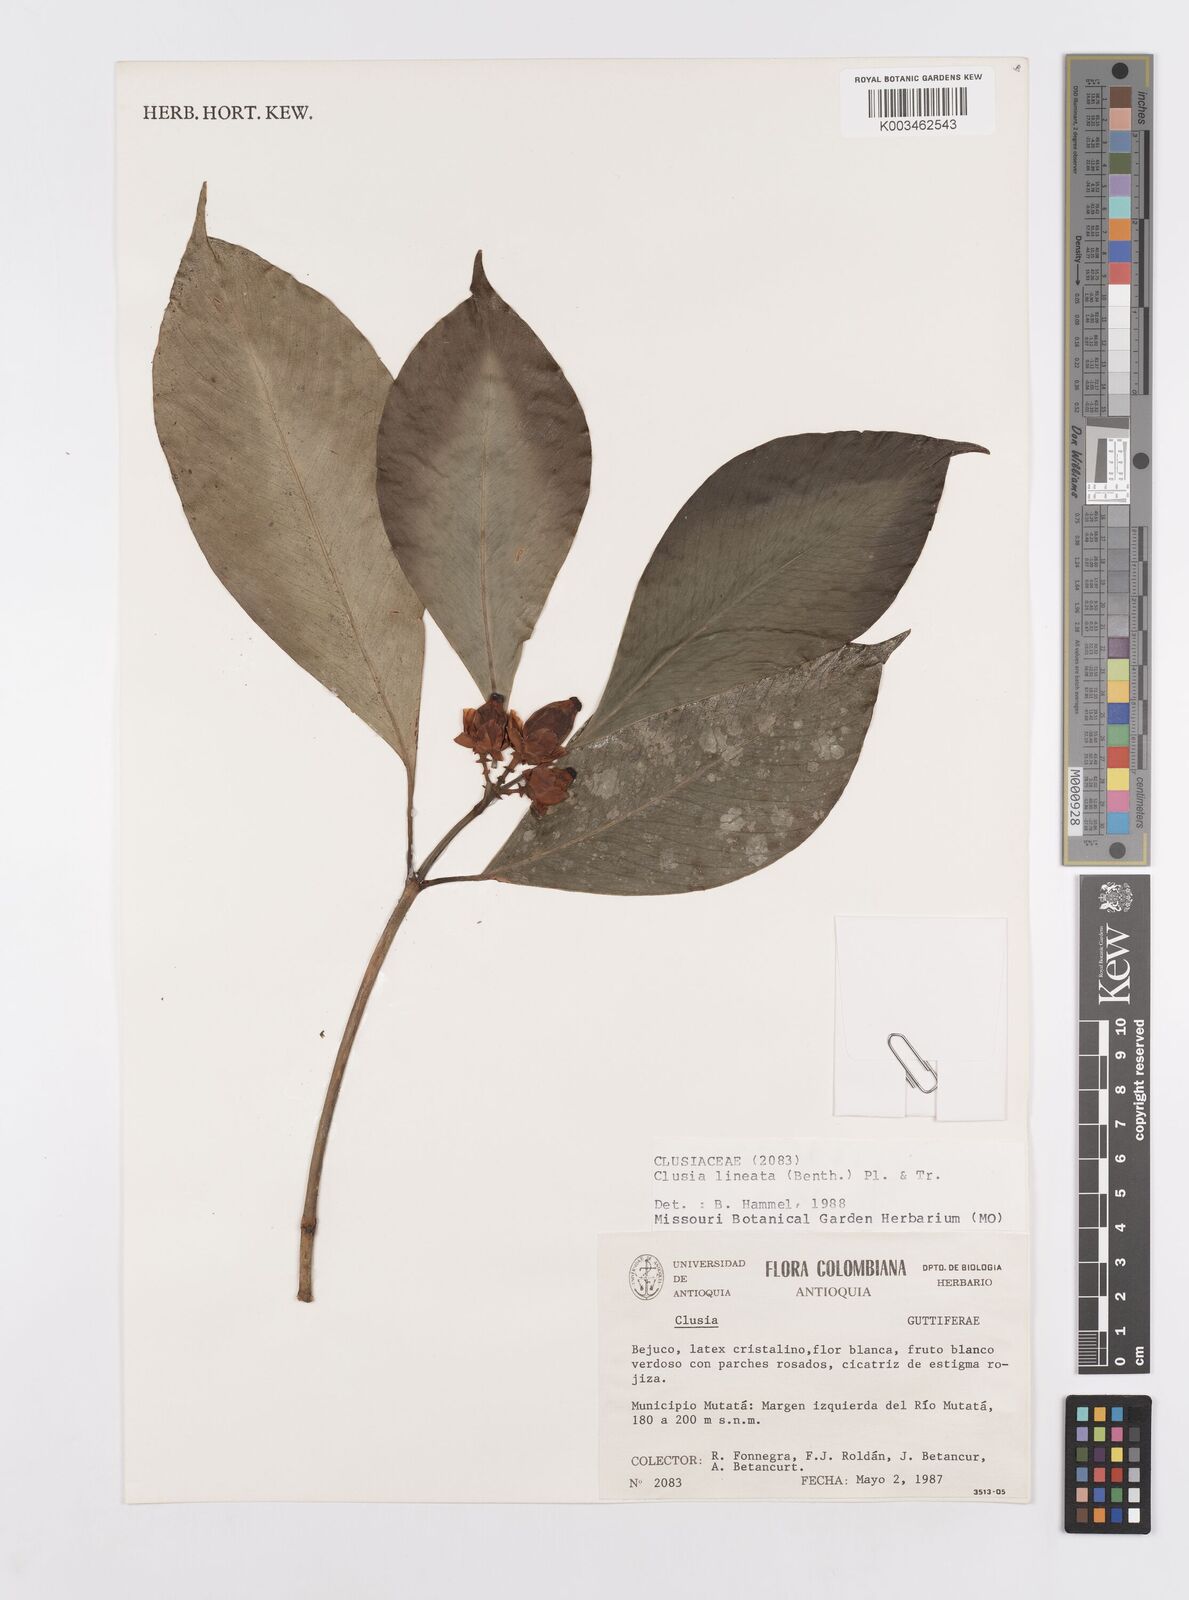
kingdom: Plantae
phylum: Tracheophyta
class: Magnoliopsida
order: Malpighiales
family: Clusiaceae
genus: Clusia
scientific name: Clusia lineata
